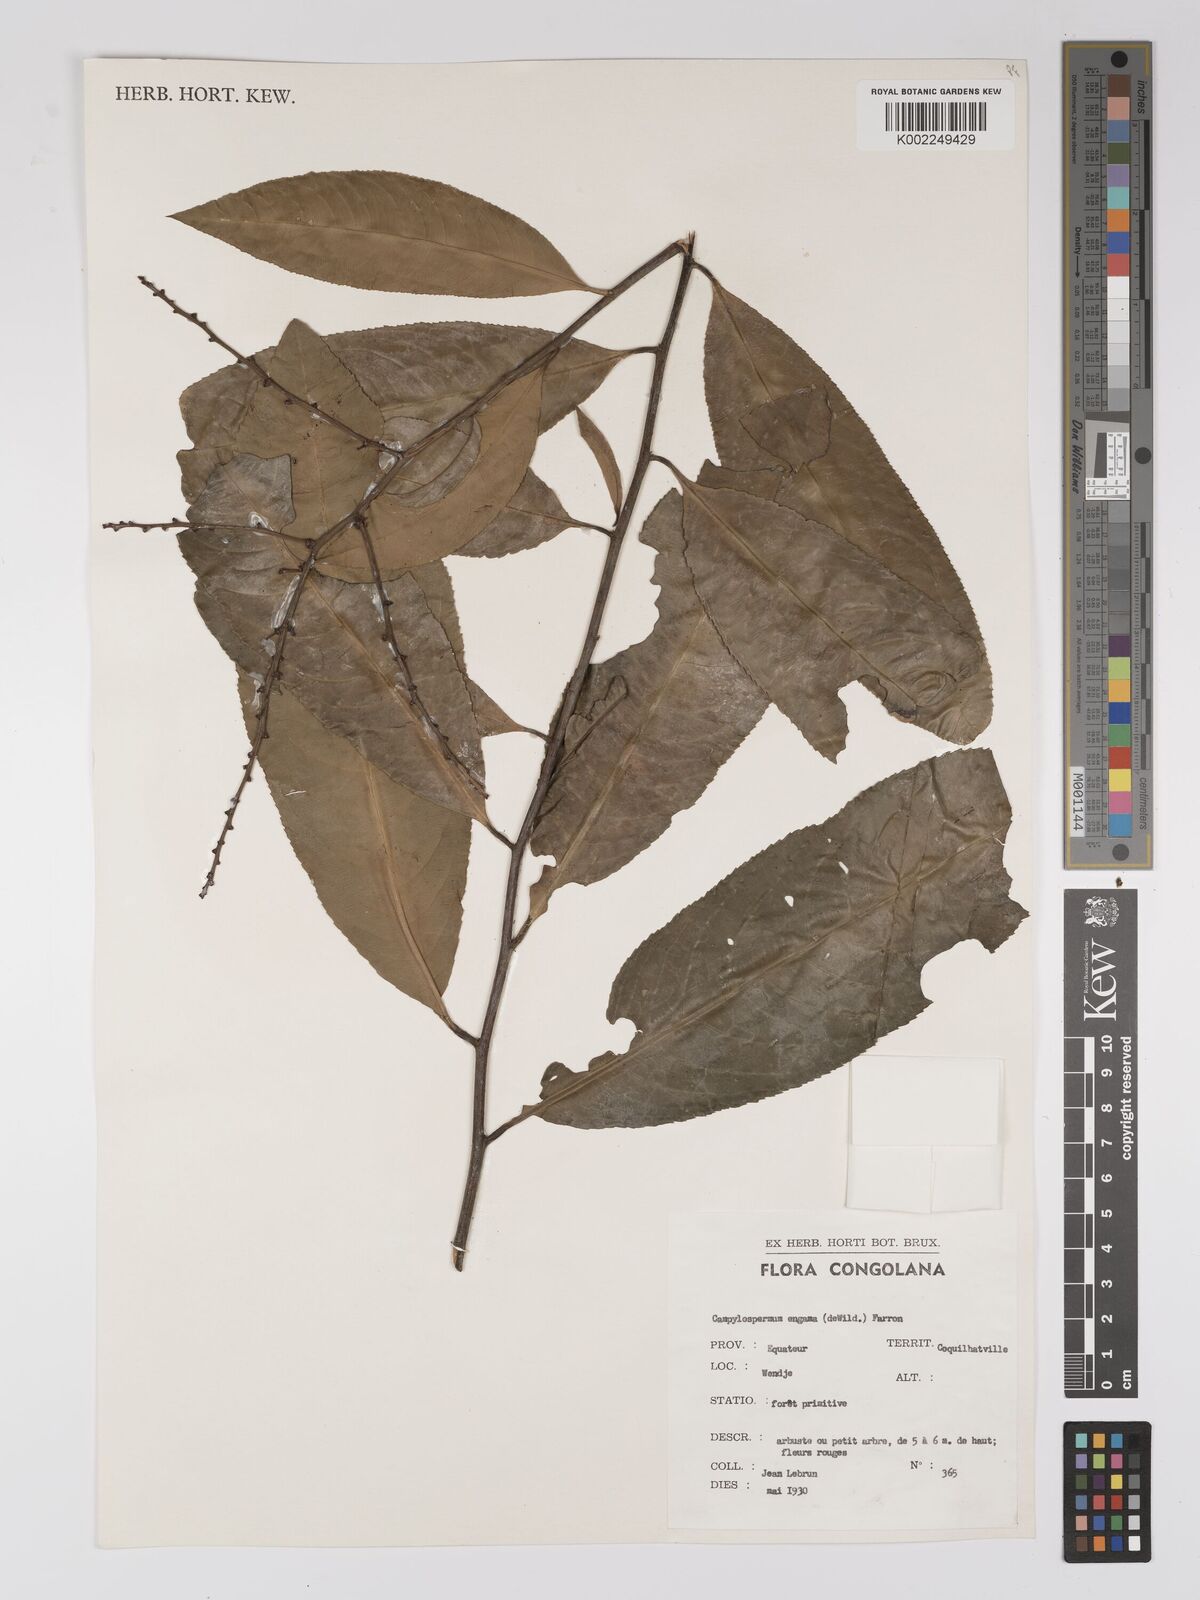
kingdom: Plantae
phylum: Tracheophyta
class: Magnoliopsida
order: Malpighiales
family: Ochnaceae
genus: Campylospermum
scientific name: Campylospermum engama
